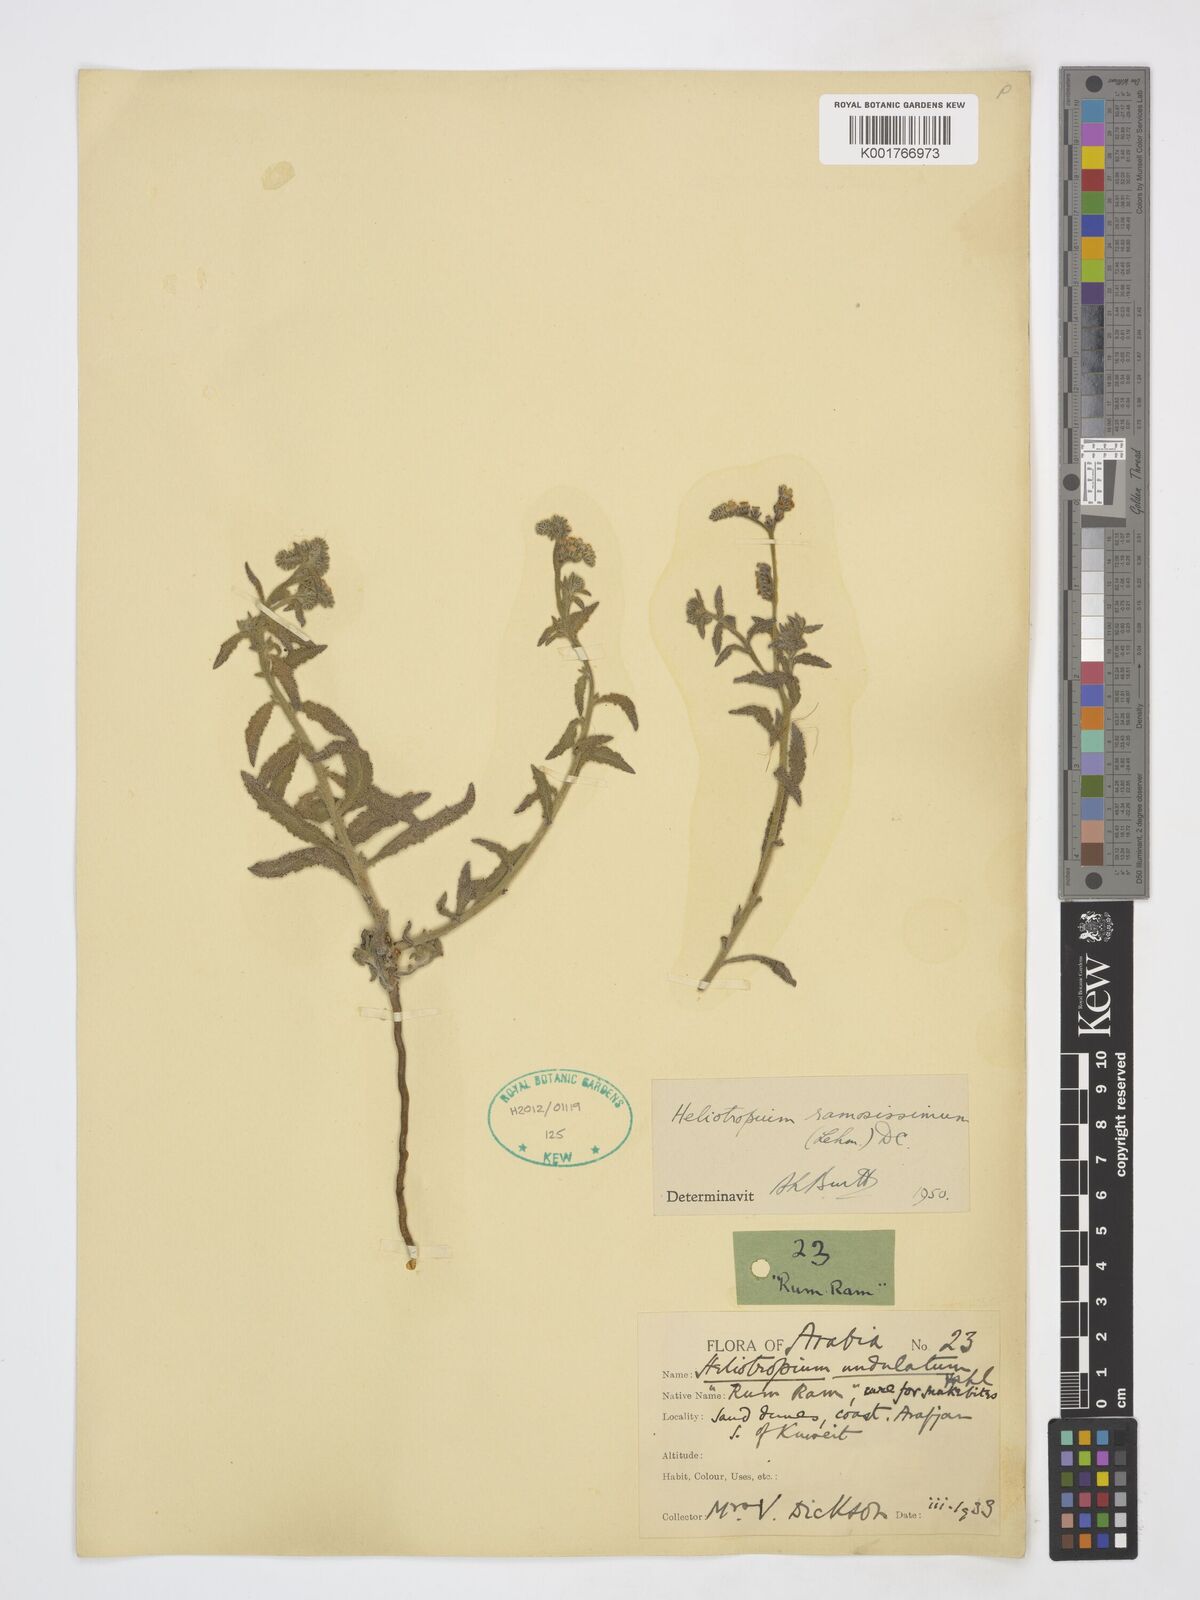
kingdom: Plantae
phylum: Tracheophyta
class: Magnoliopsida
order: Boraginales
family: Heliotropiaceae
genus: Heliotropium
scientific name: Heliotropium ramosissimum
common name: Wavy heliotrope
